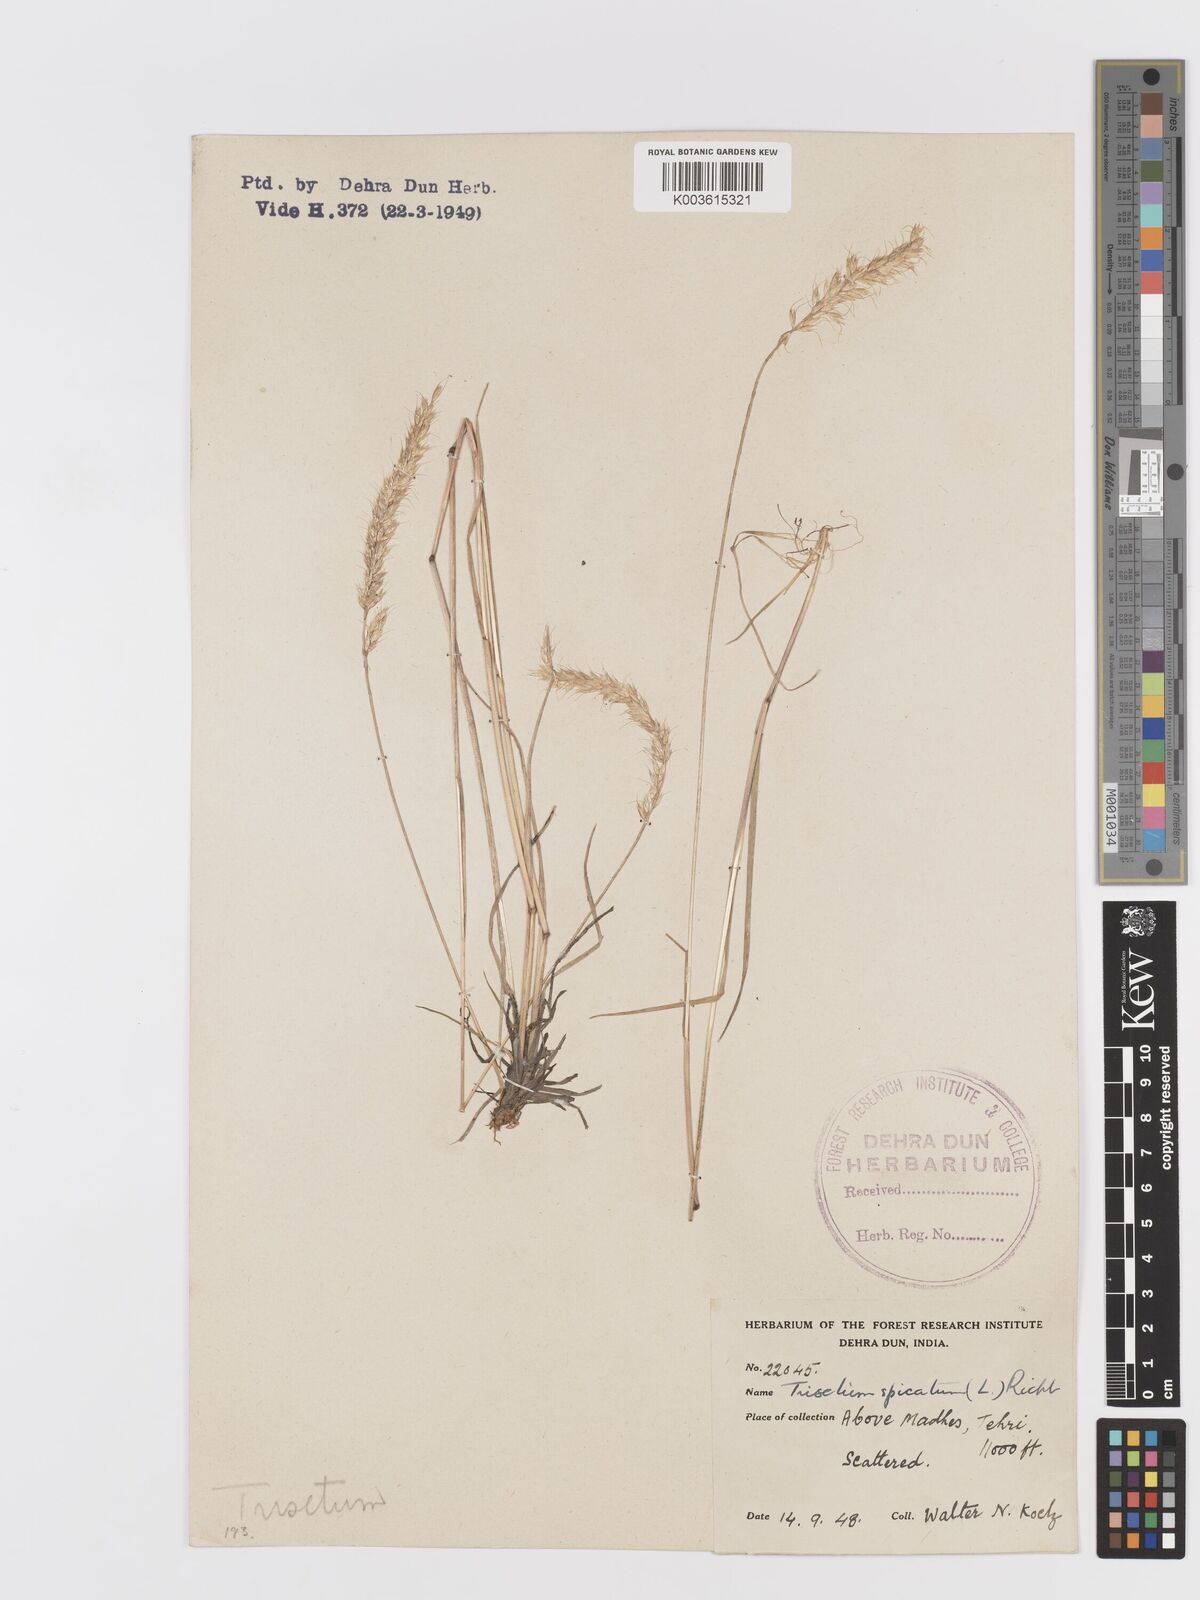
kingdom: Plantae
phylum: Tracheophyta
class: Liliopsida
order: Poales
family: Poaceae
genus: Koeleria
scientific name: Koeleria spicata
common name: Mountain trisetum
